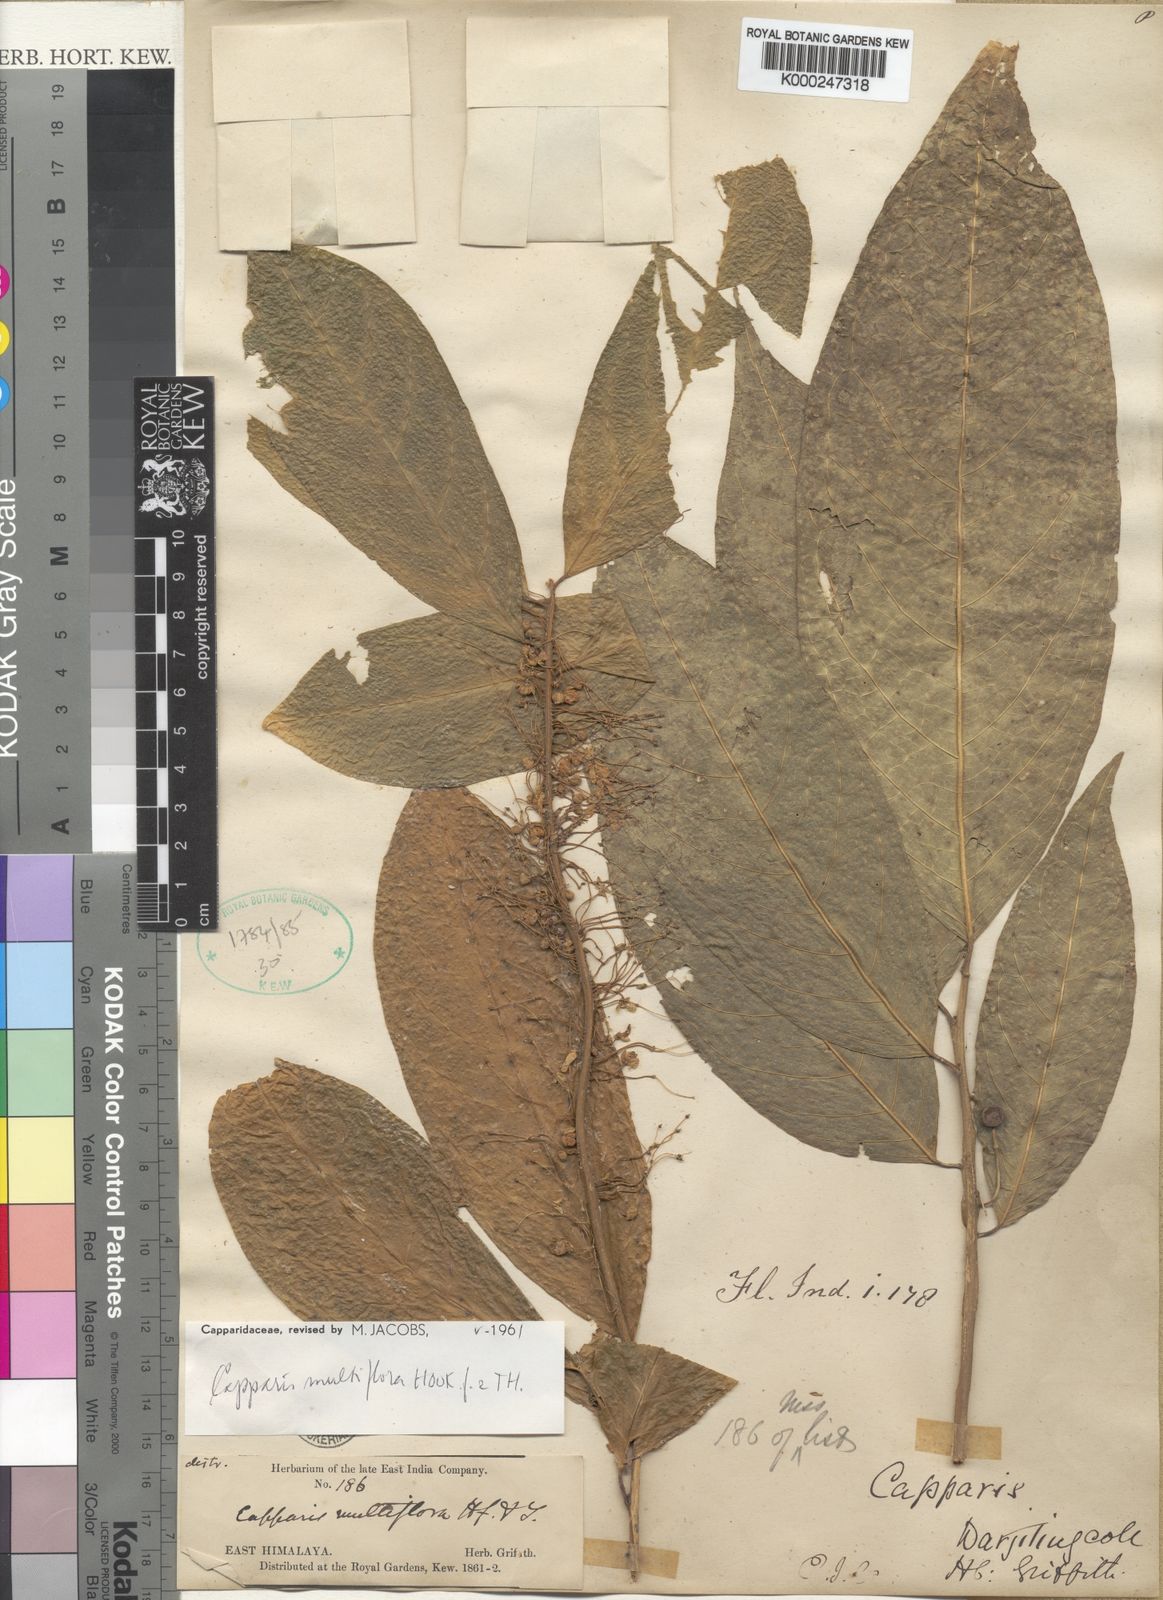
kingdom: Plantae
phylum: Tracheophyta
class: Magnoliopsida
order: Brassicales
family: Capparaceae
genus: Capparis
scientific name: Capparis multiflora
